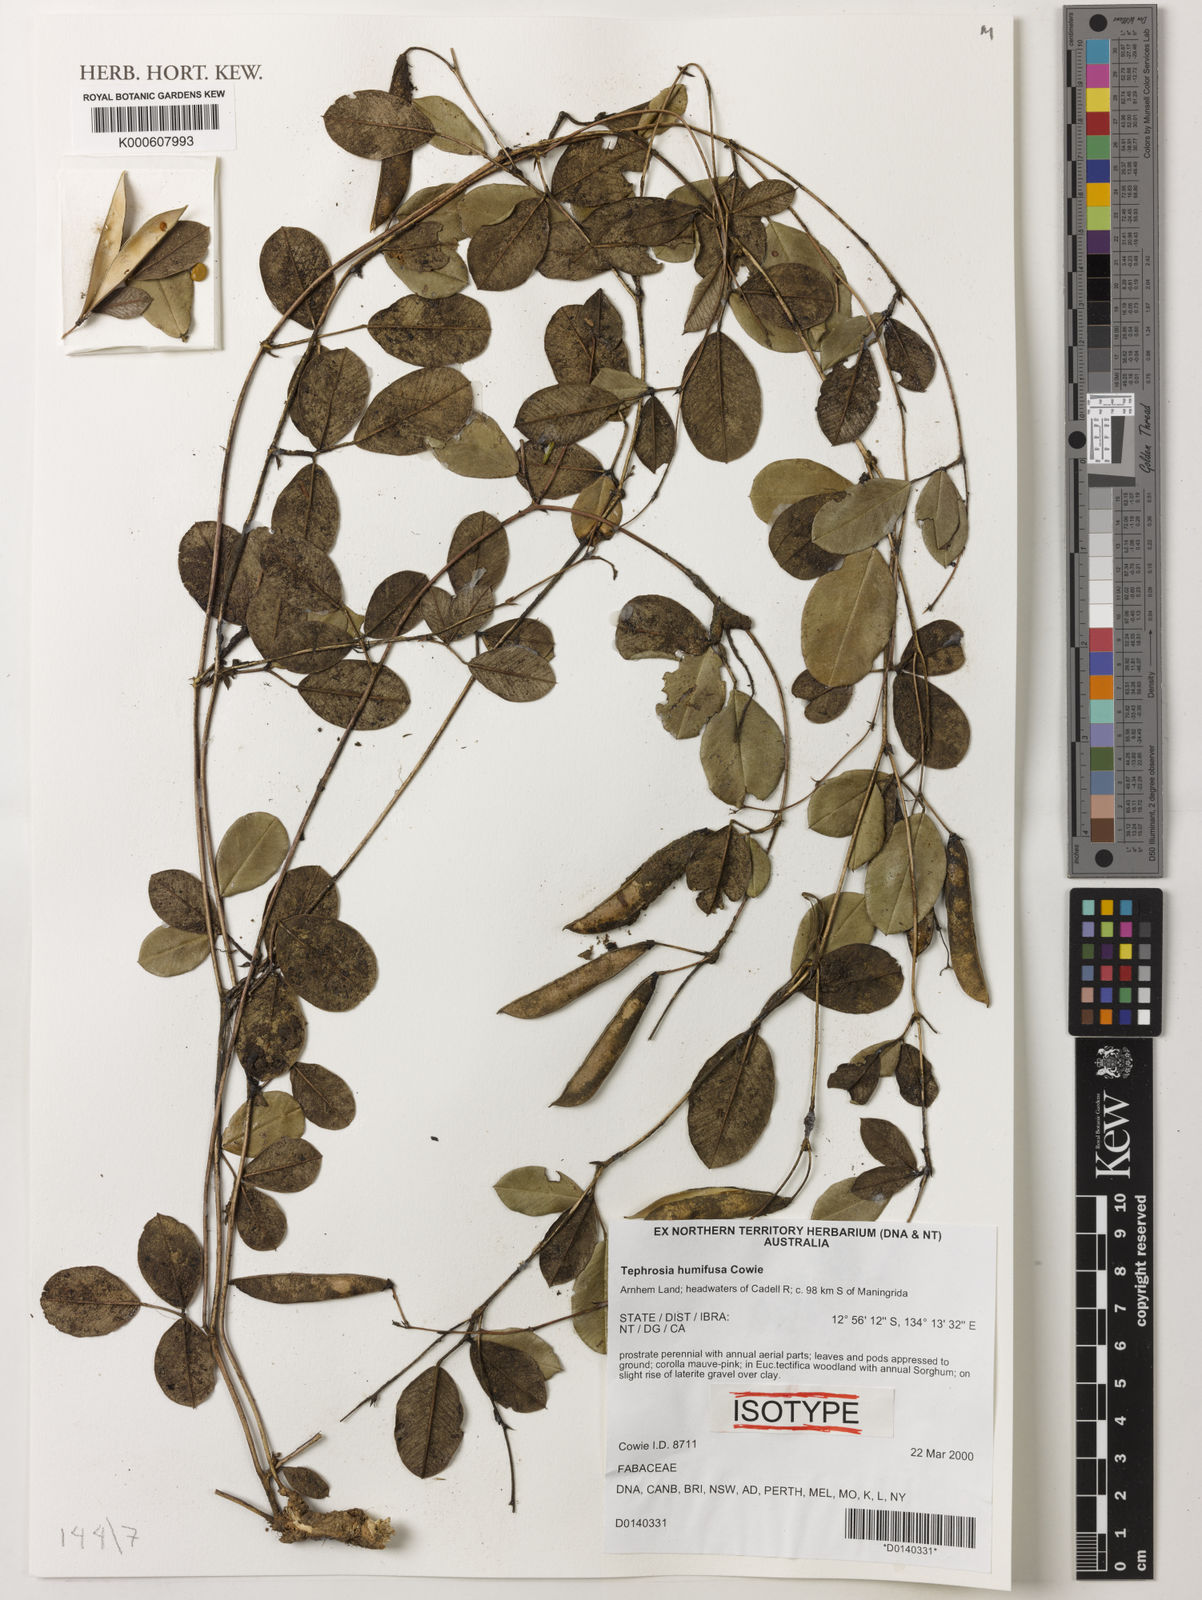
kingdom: Plantae
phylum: Tracheophyta
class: Magnoliopsida
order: Fabales
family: Fabaceae
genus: Tephrosia
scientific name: Tephrosia humifusa
